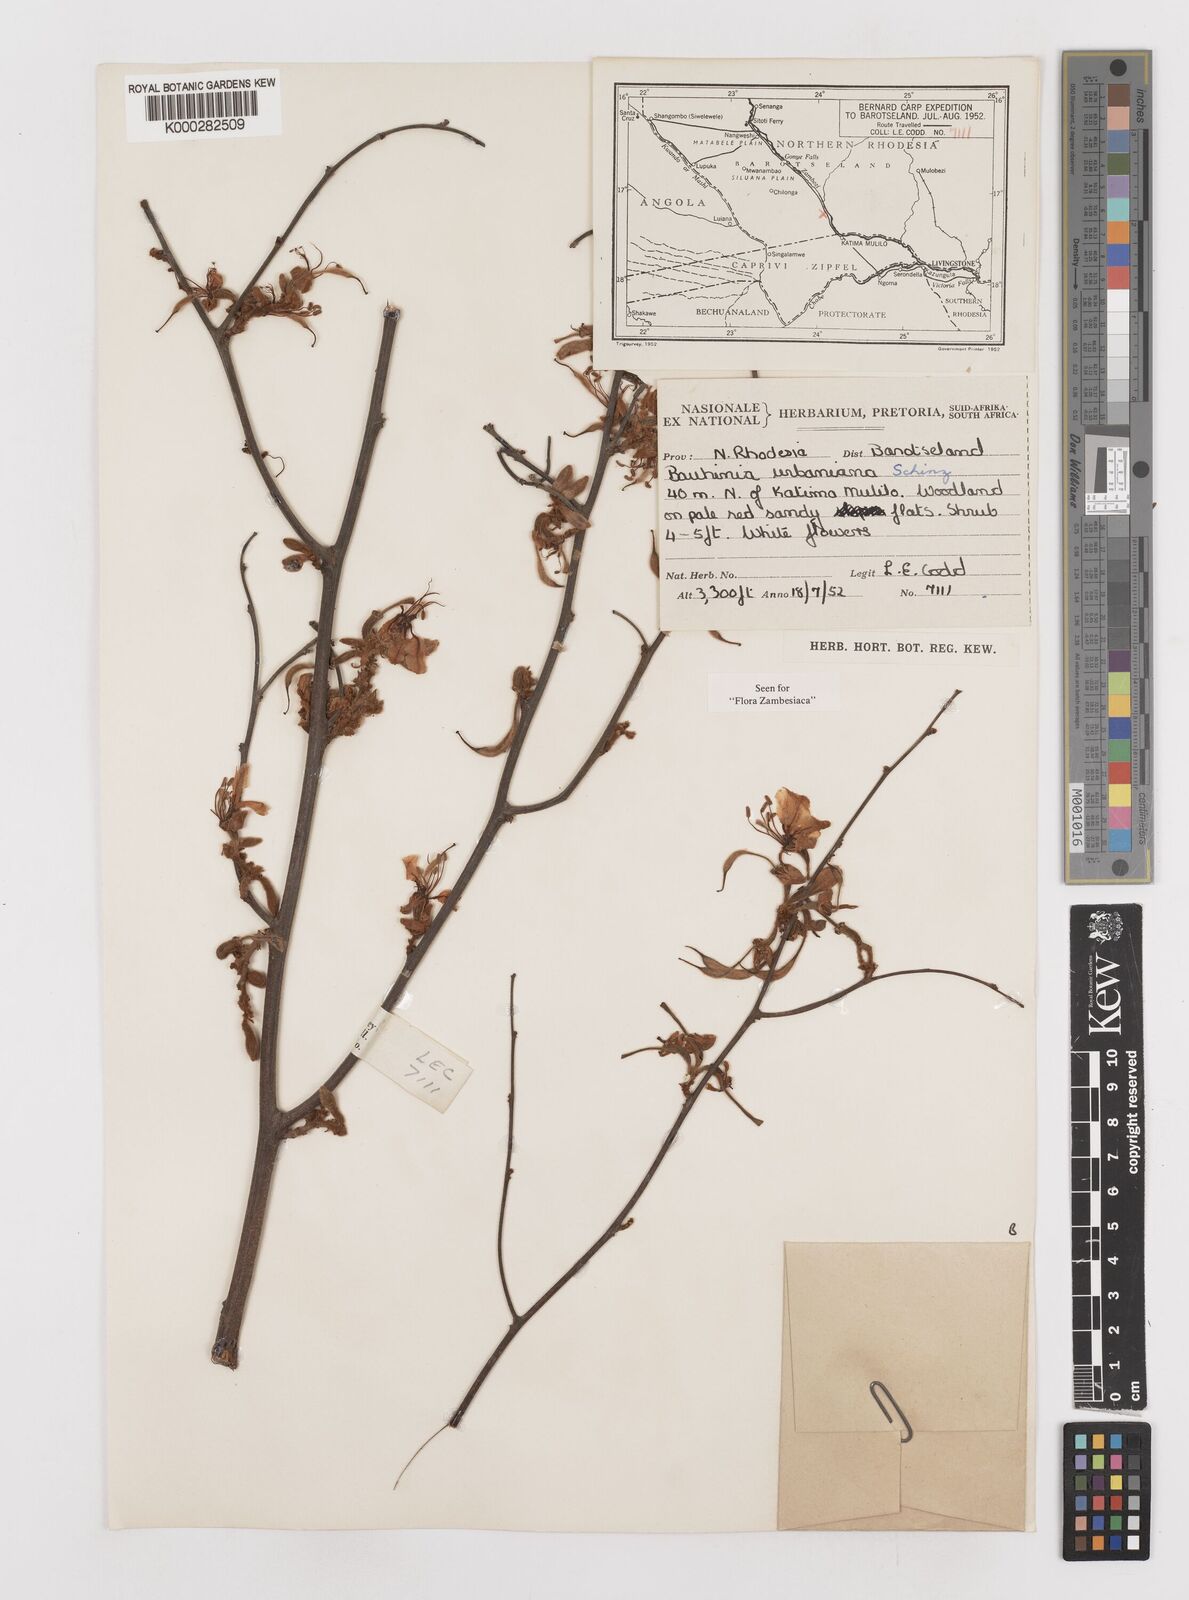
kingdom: Plantae
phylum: Tracheophyta
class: Magnoliopsida
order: Fabales
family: Fabaceae
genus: Bauhinia
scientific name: Bauhinia urbaniana
